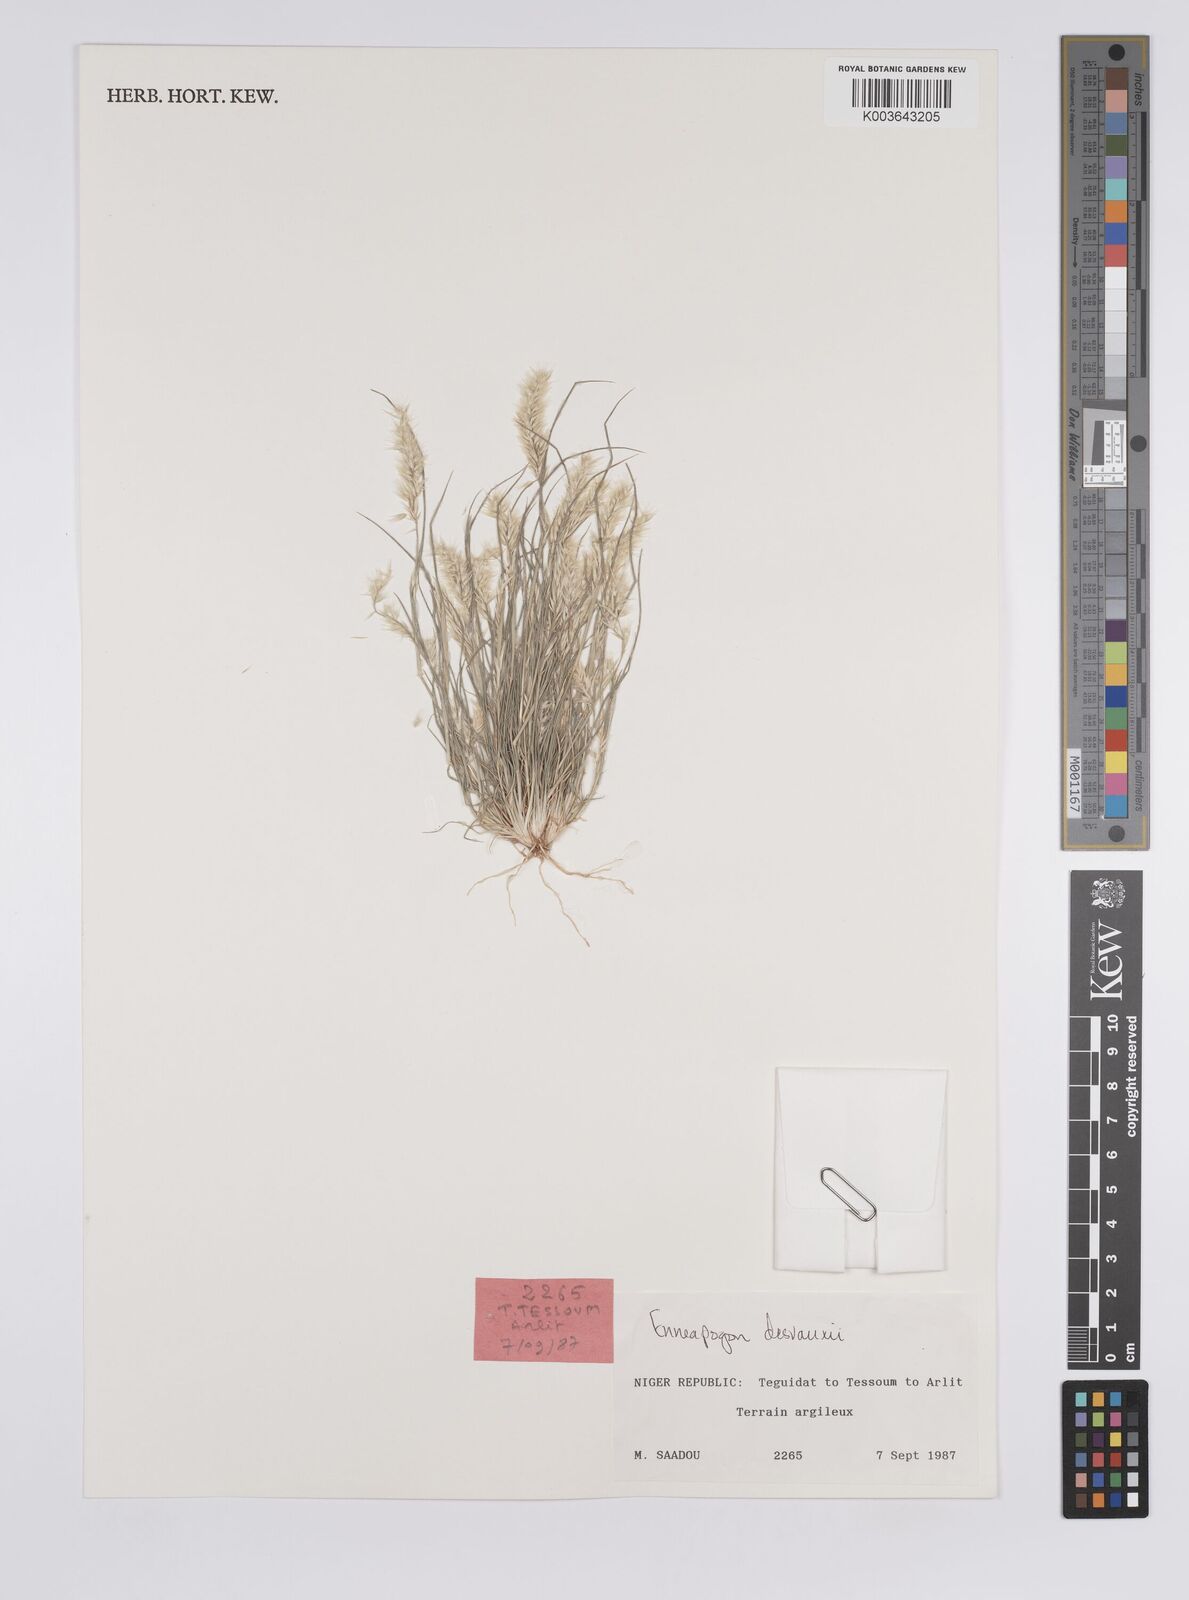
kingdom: Plantae
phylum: Tracheophyta
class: Liliopsida
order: Poales
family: Poaceae
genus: Enneapogon
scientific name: Enneapogon desvauxii
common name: Feather pappus grass
